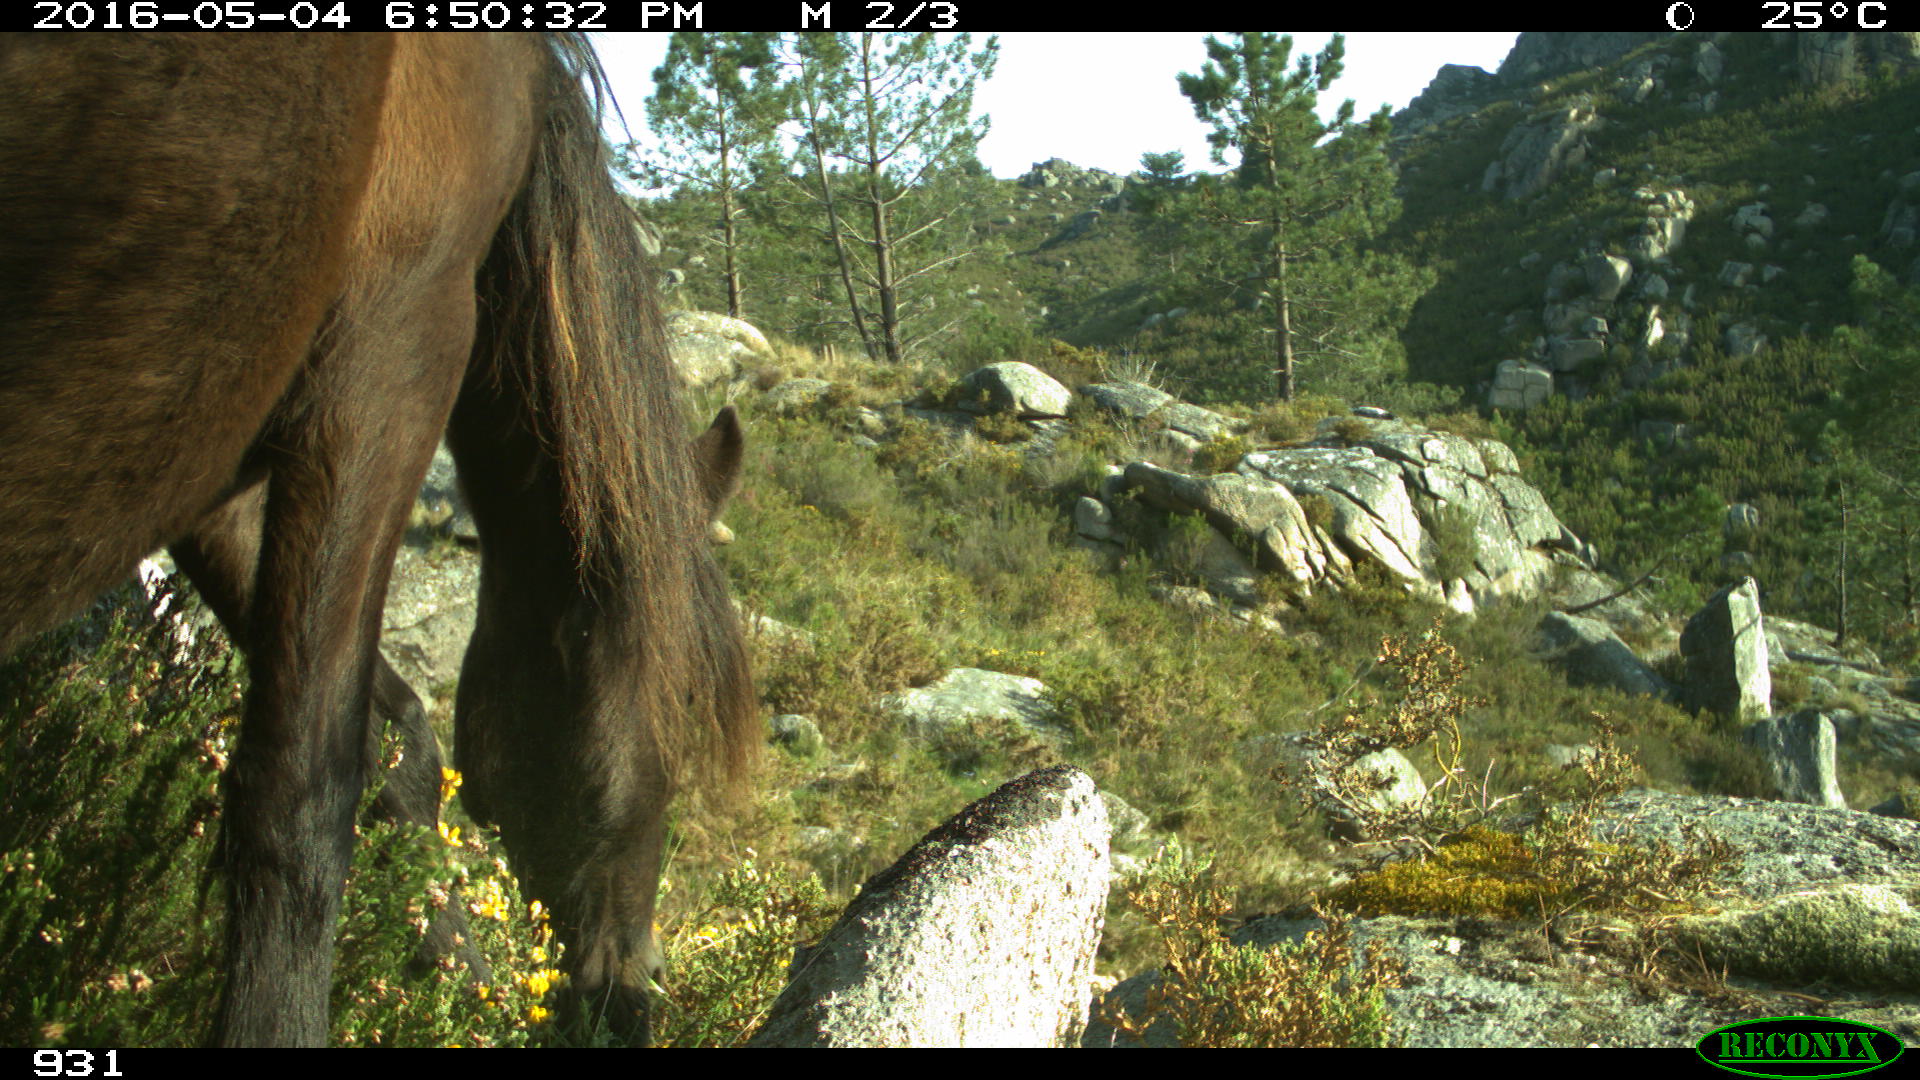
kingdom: Animalia
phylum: Chordata
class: Mammalia
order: Perissodactyla
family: Equidae
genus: Equus
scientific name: Equus caballus
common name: Horse
